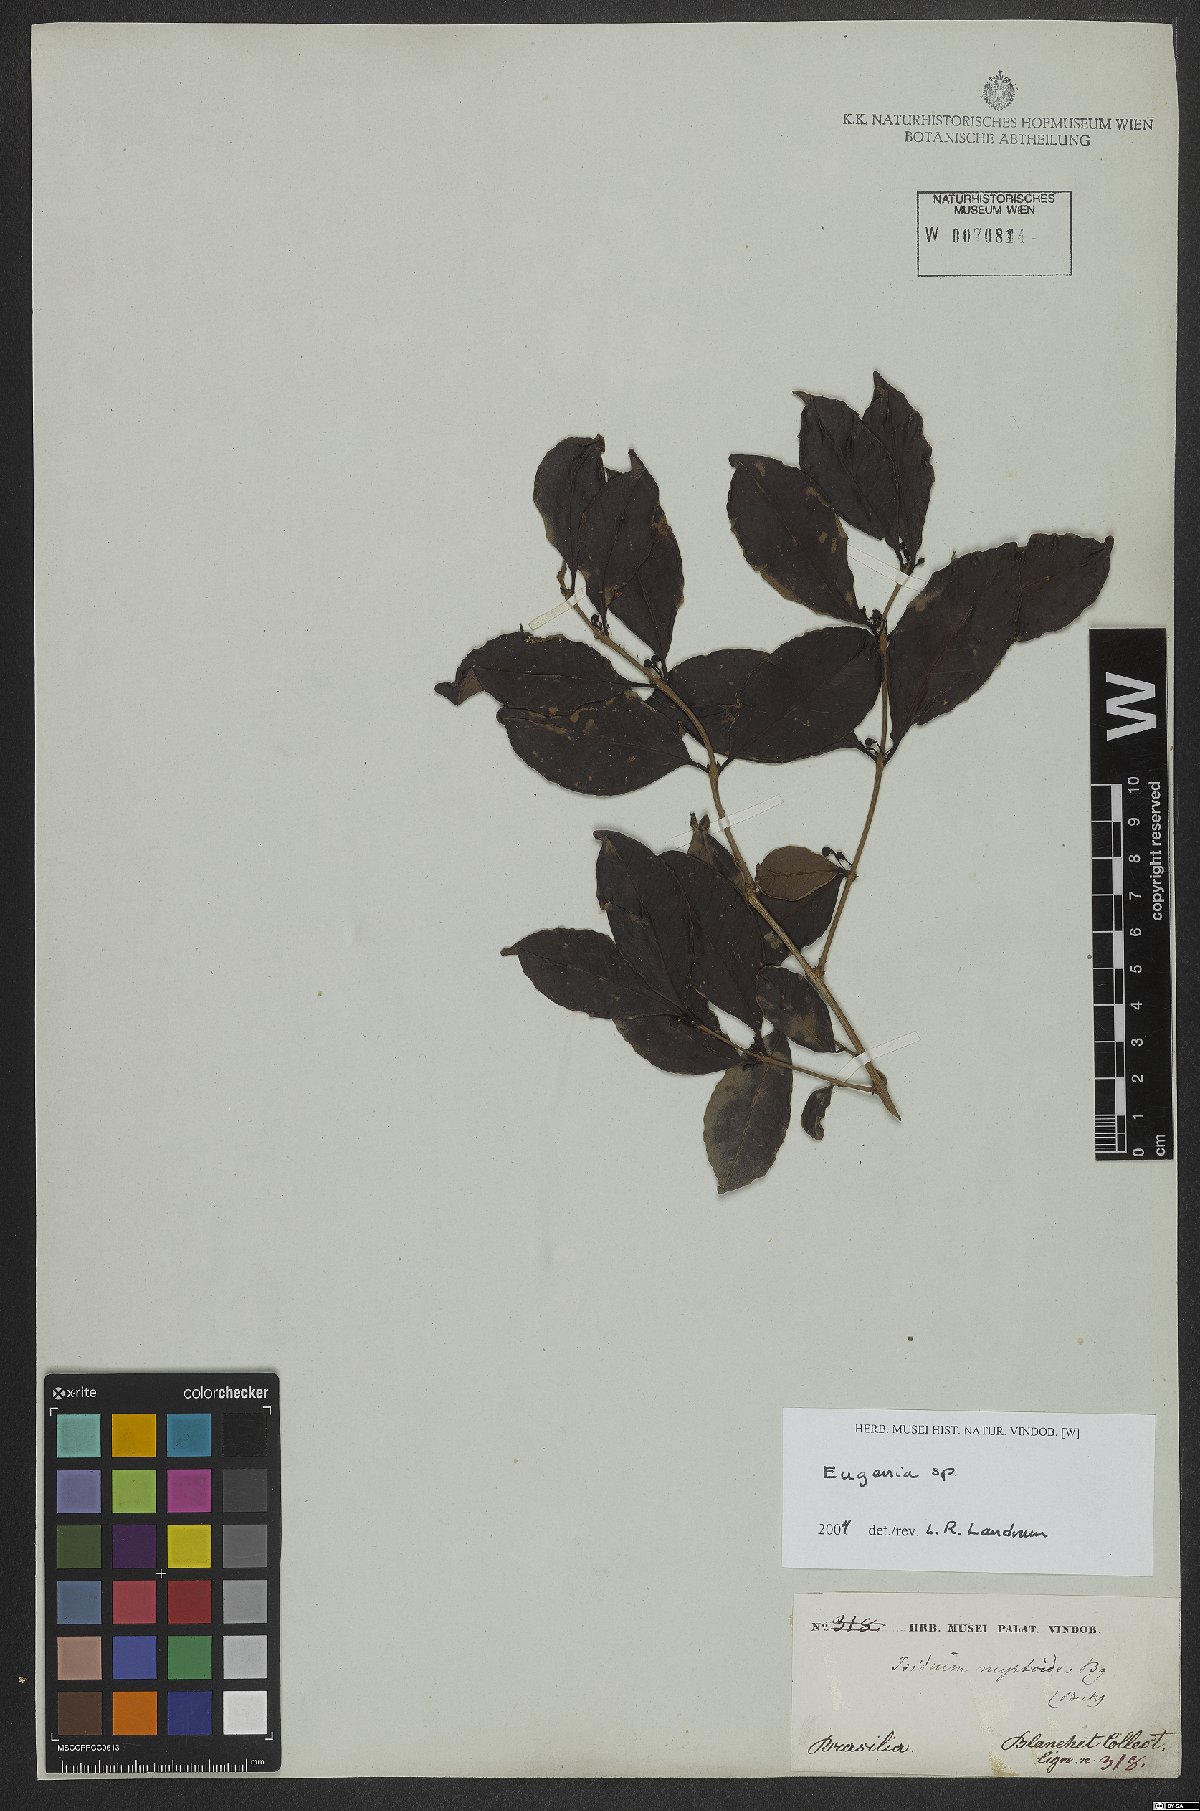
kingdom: Plantae
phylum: Tracheophyta
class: Magnoliopsida
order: Myrtales
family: Myrtaceae
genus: Eugenia
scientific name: Eugenia
